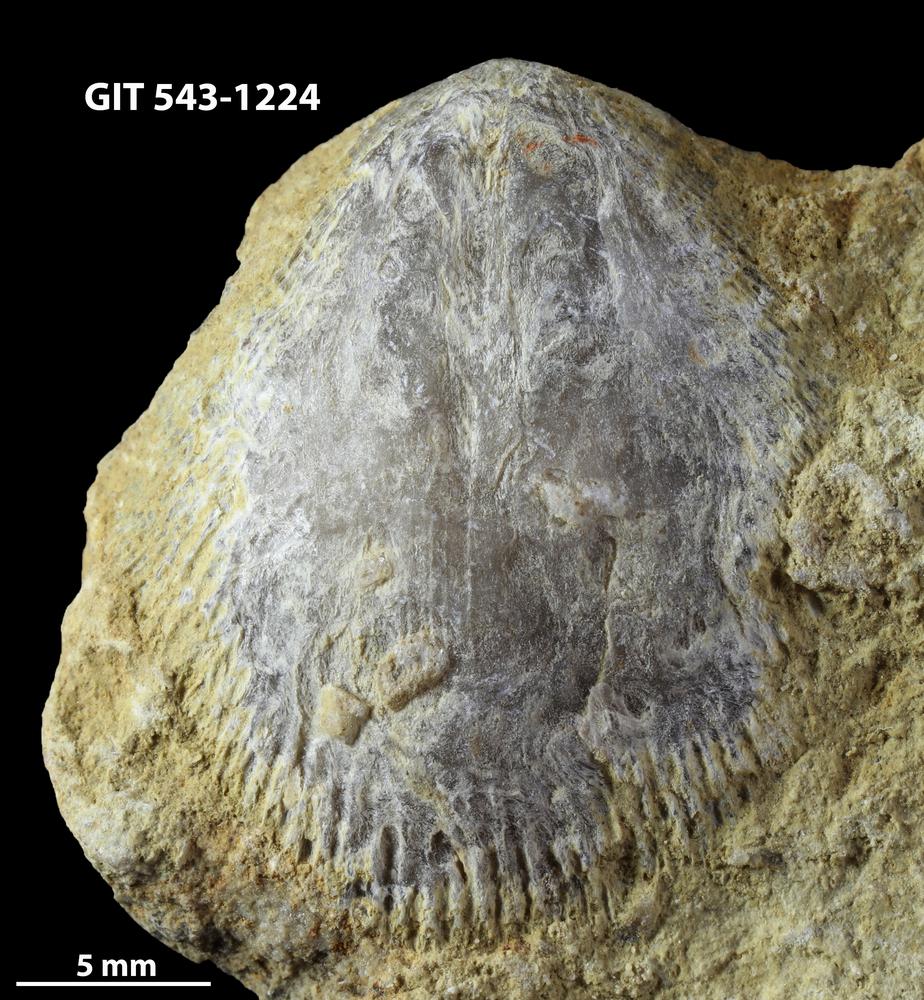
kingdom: Animalia
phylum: Brachiopoda
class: Rhynchonellata
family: Clitambonitidae
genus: Vellamo
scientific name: Vellamo
